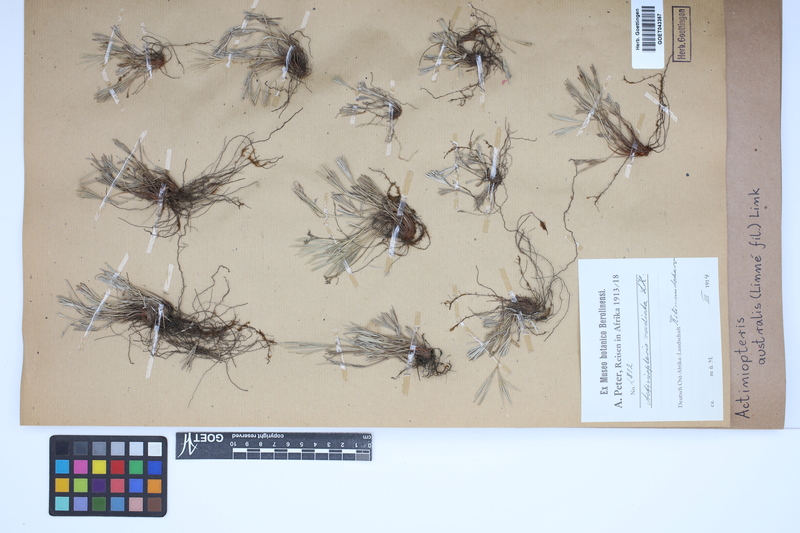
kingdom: Plantae
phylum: Tracheophyta
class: Polypodiopsida
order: Polypodiales
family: Pteridaceae
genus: Actiniopteris
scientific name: Actiniopteris australis
